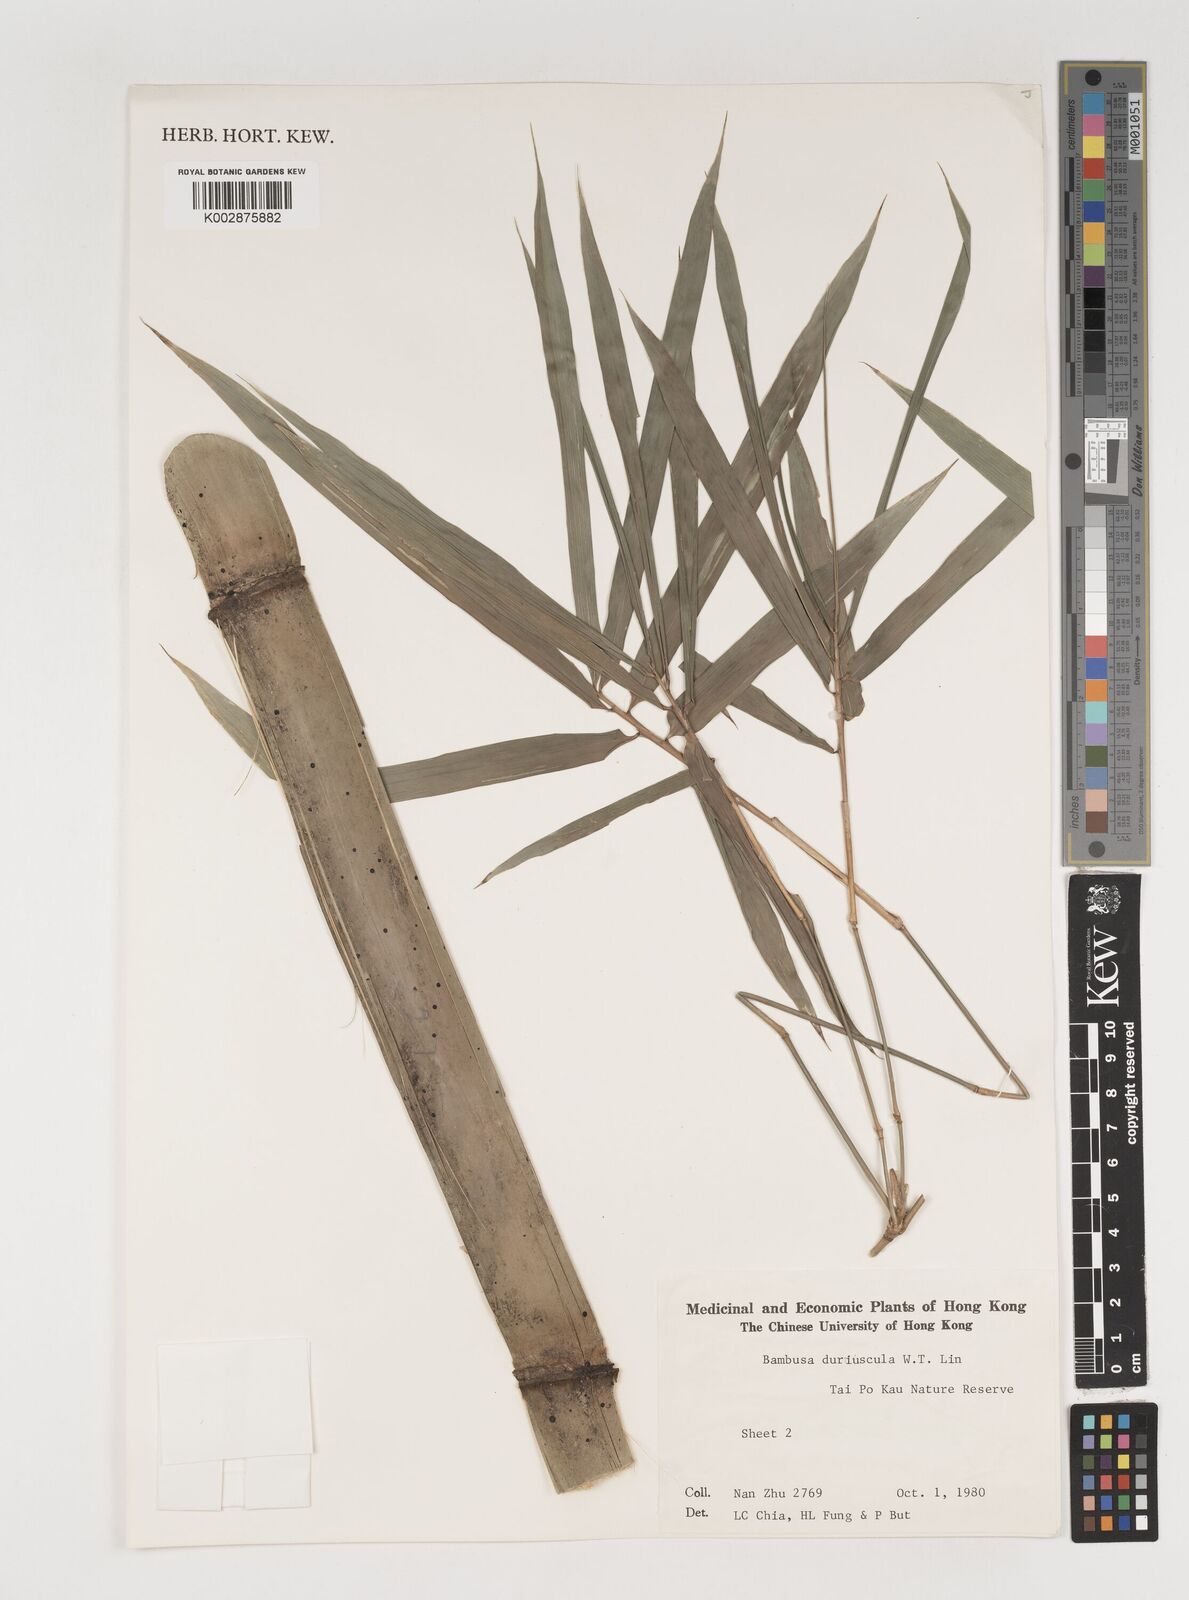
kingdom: Plantae
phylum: Tracheophyta
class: Liliopsida
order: Poales
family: Poaceae
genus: Bambusa
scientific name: Bambusa duriuscula
